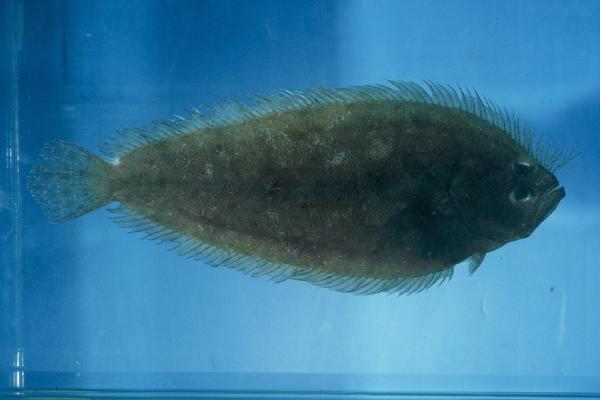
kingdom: Animalia
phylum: Chordata
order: Pleuronectiformes
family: Pleuronectidae
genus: Paralichthodes
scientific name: Paralichthodes algoensis
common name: Measles flounder
